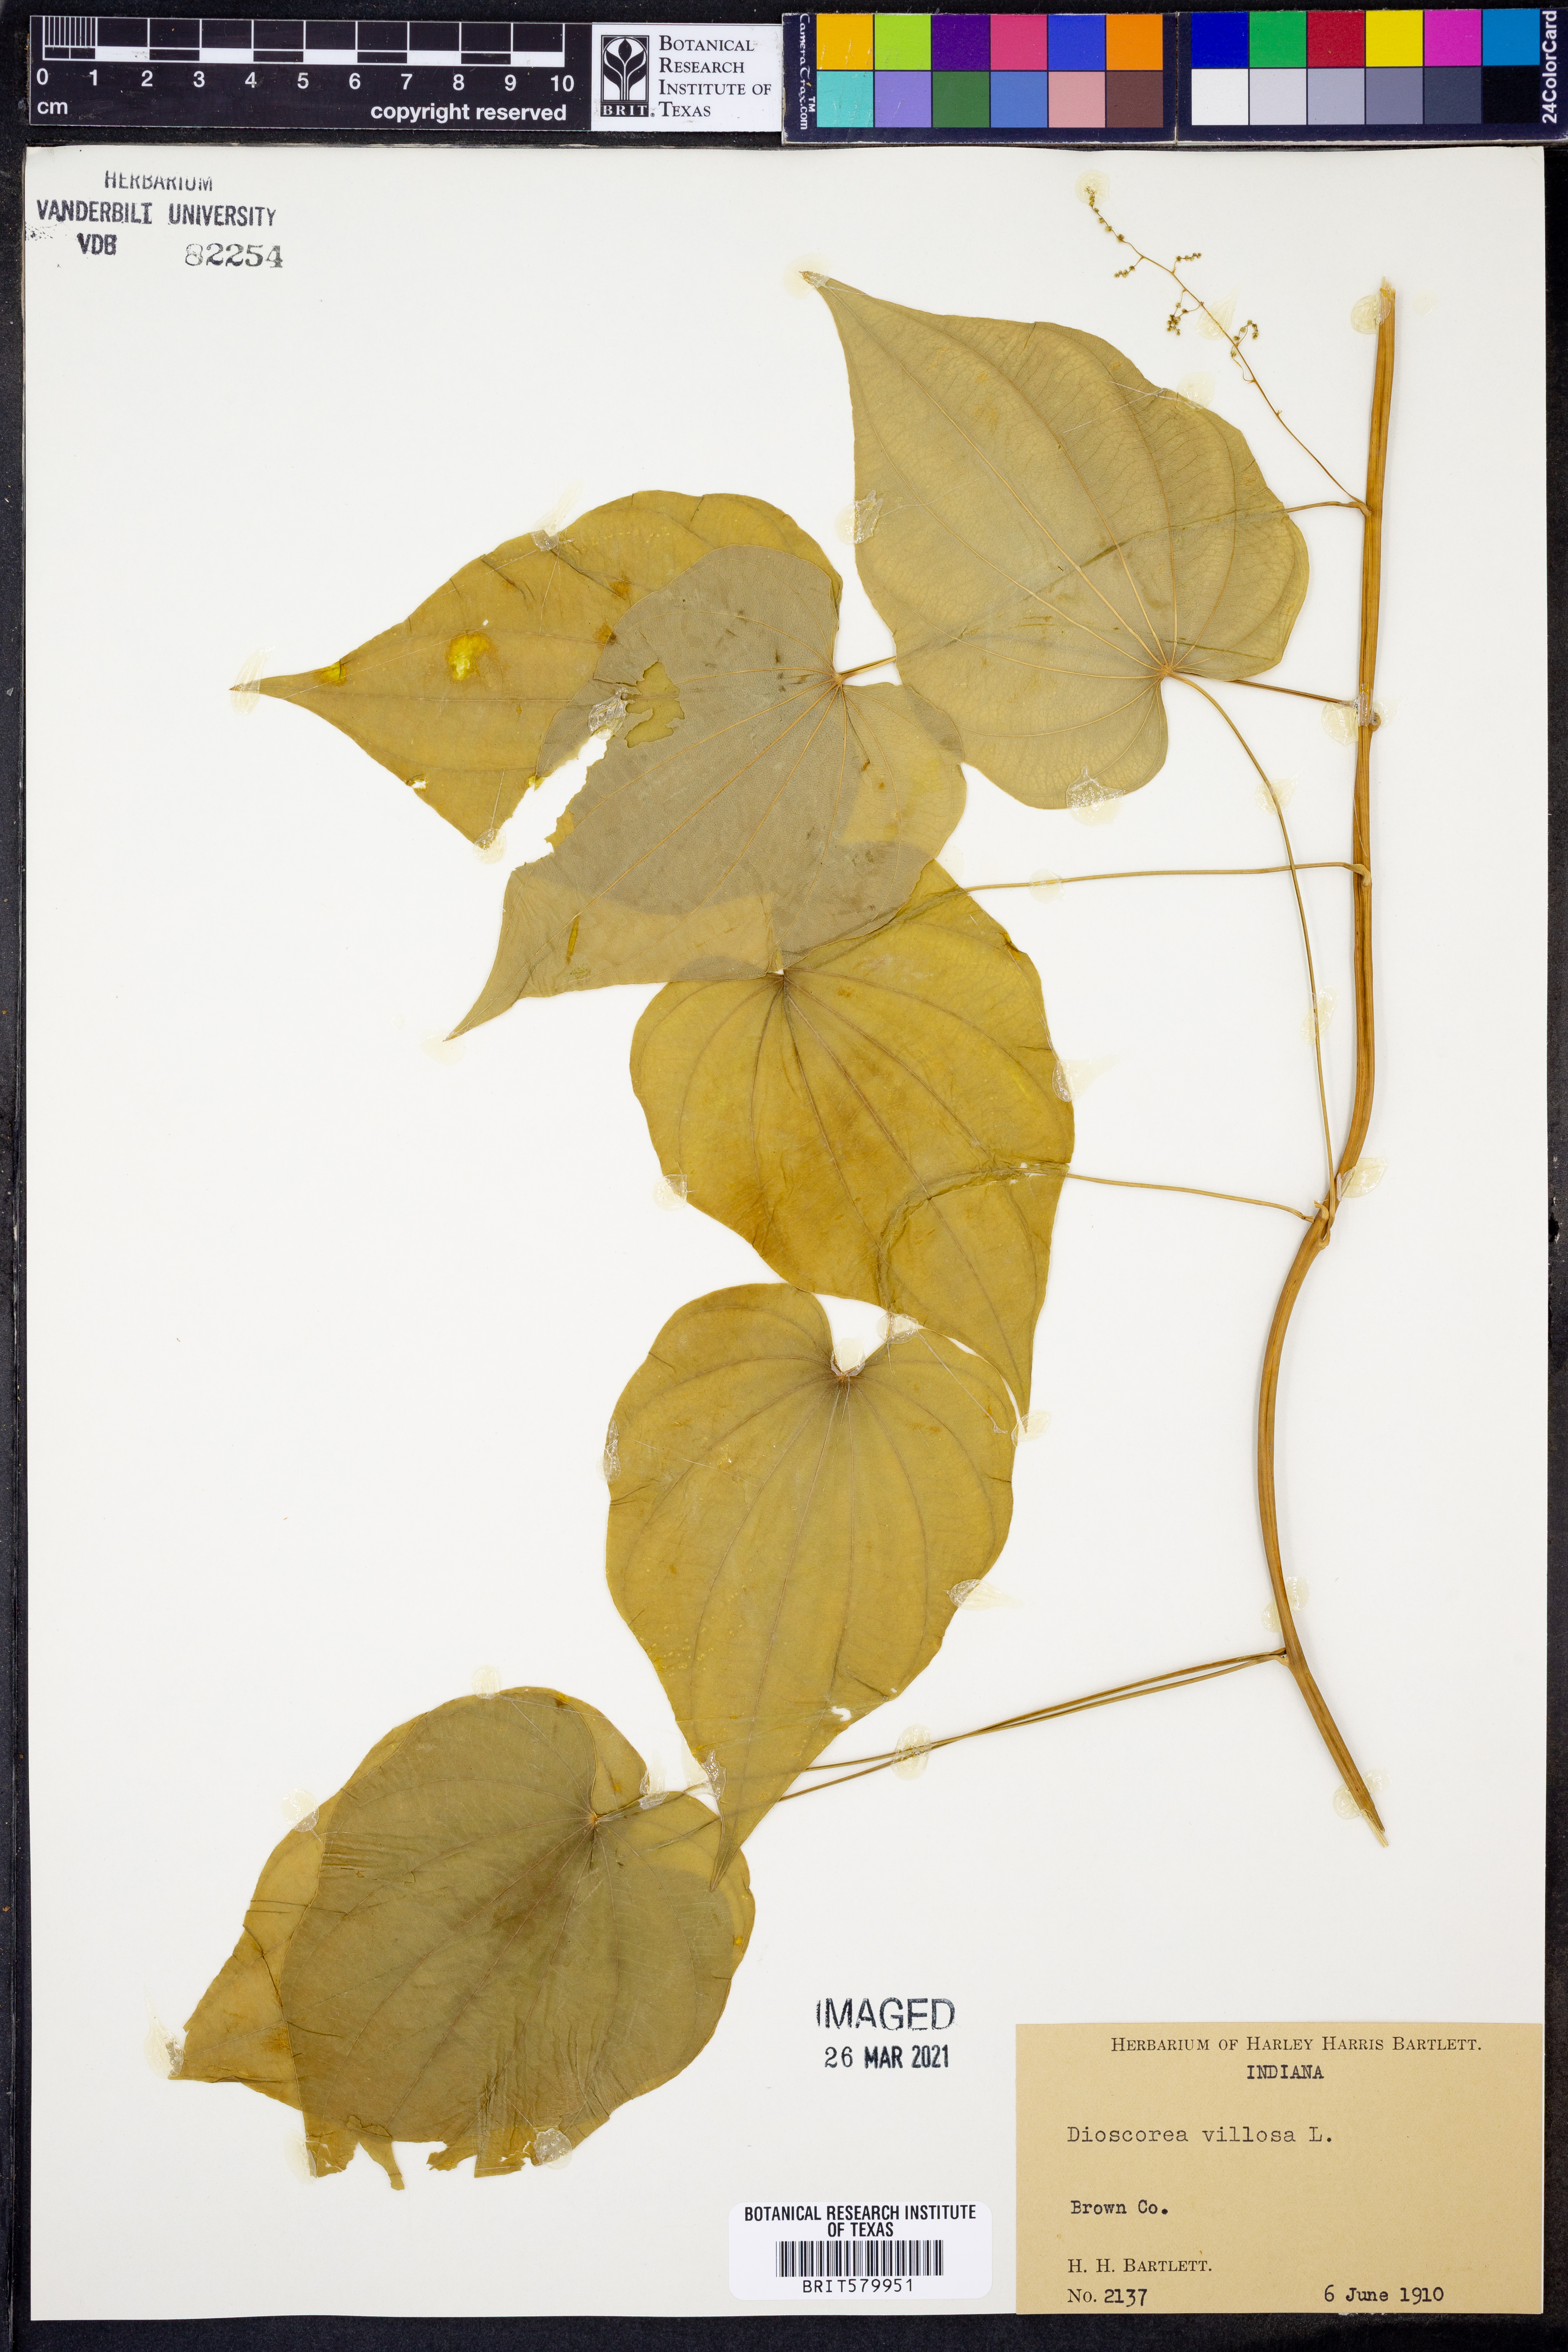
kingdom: Plantae
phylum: Tracheophyta
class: Liliopsida
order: Dioscoreales
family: Dioscoreaceae
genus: Dioscorea
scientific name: Dioscorea villosa
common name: Wild yam
